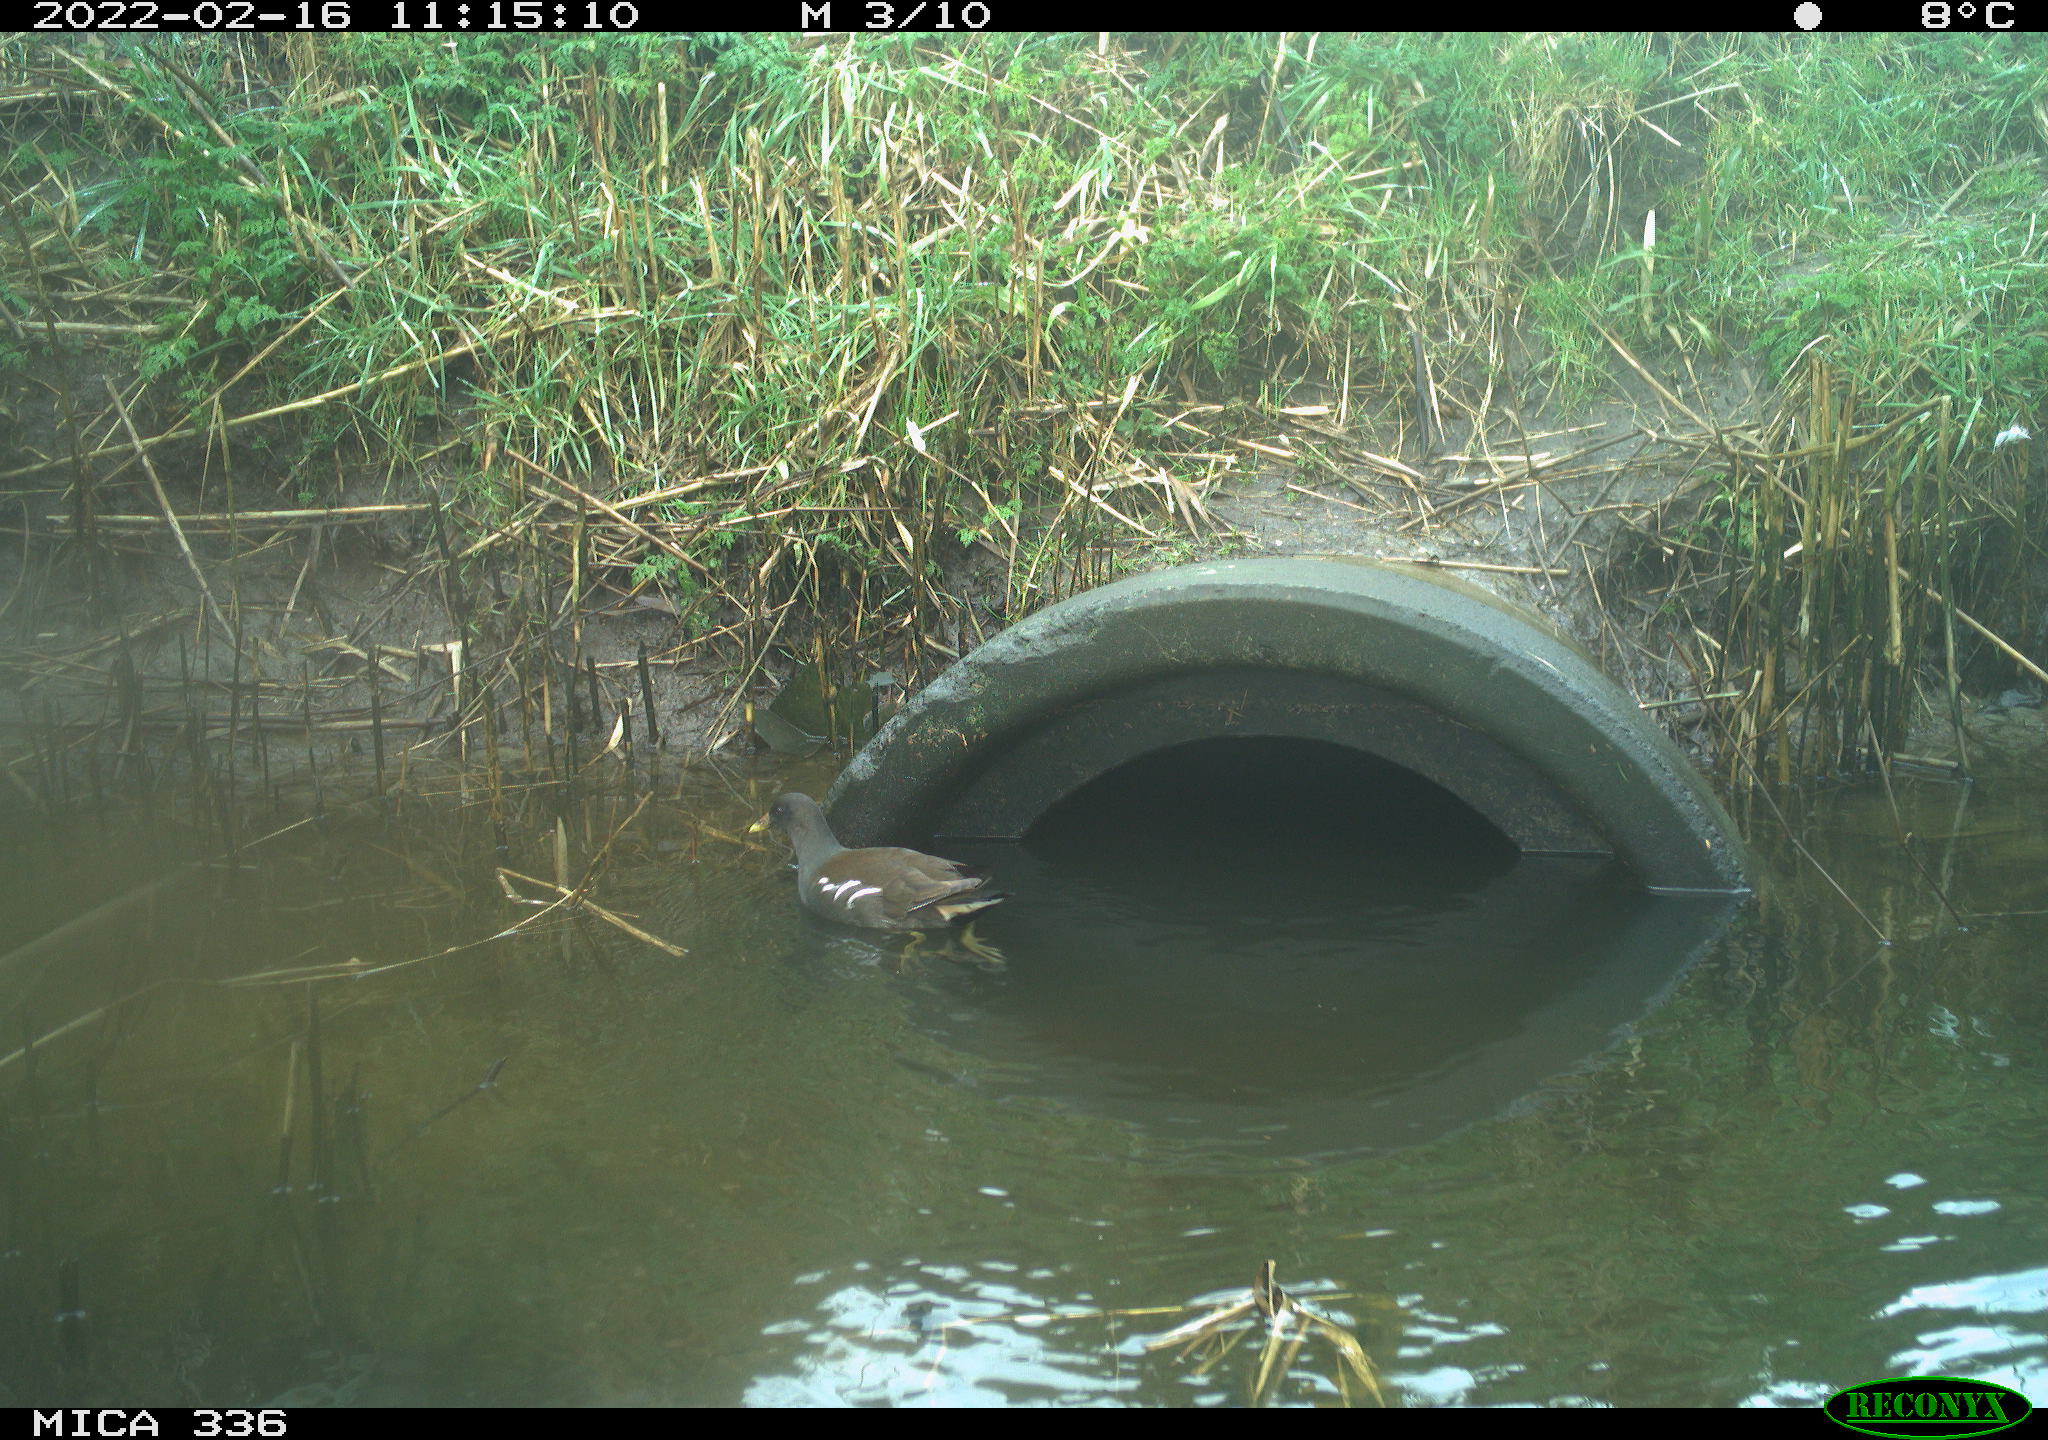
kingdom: Animalia
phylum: Chordata
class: Aves
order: Gruiformes
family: Rallidae
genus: Gallinula
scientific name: Gallinula chloropus
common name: Common moorhen
